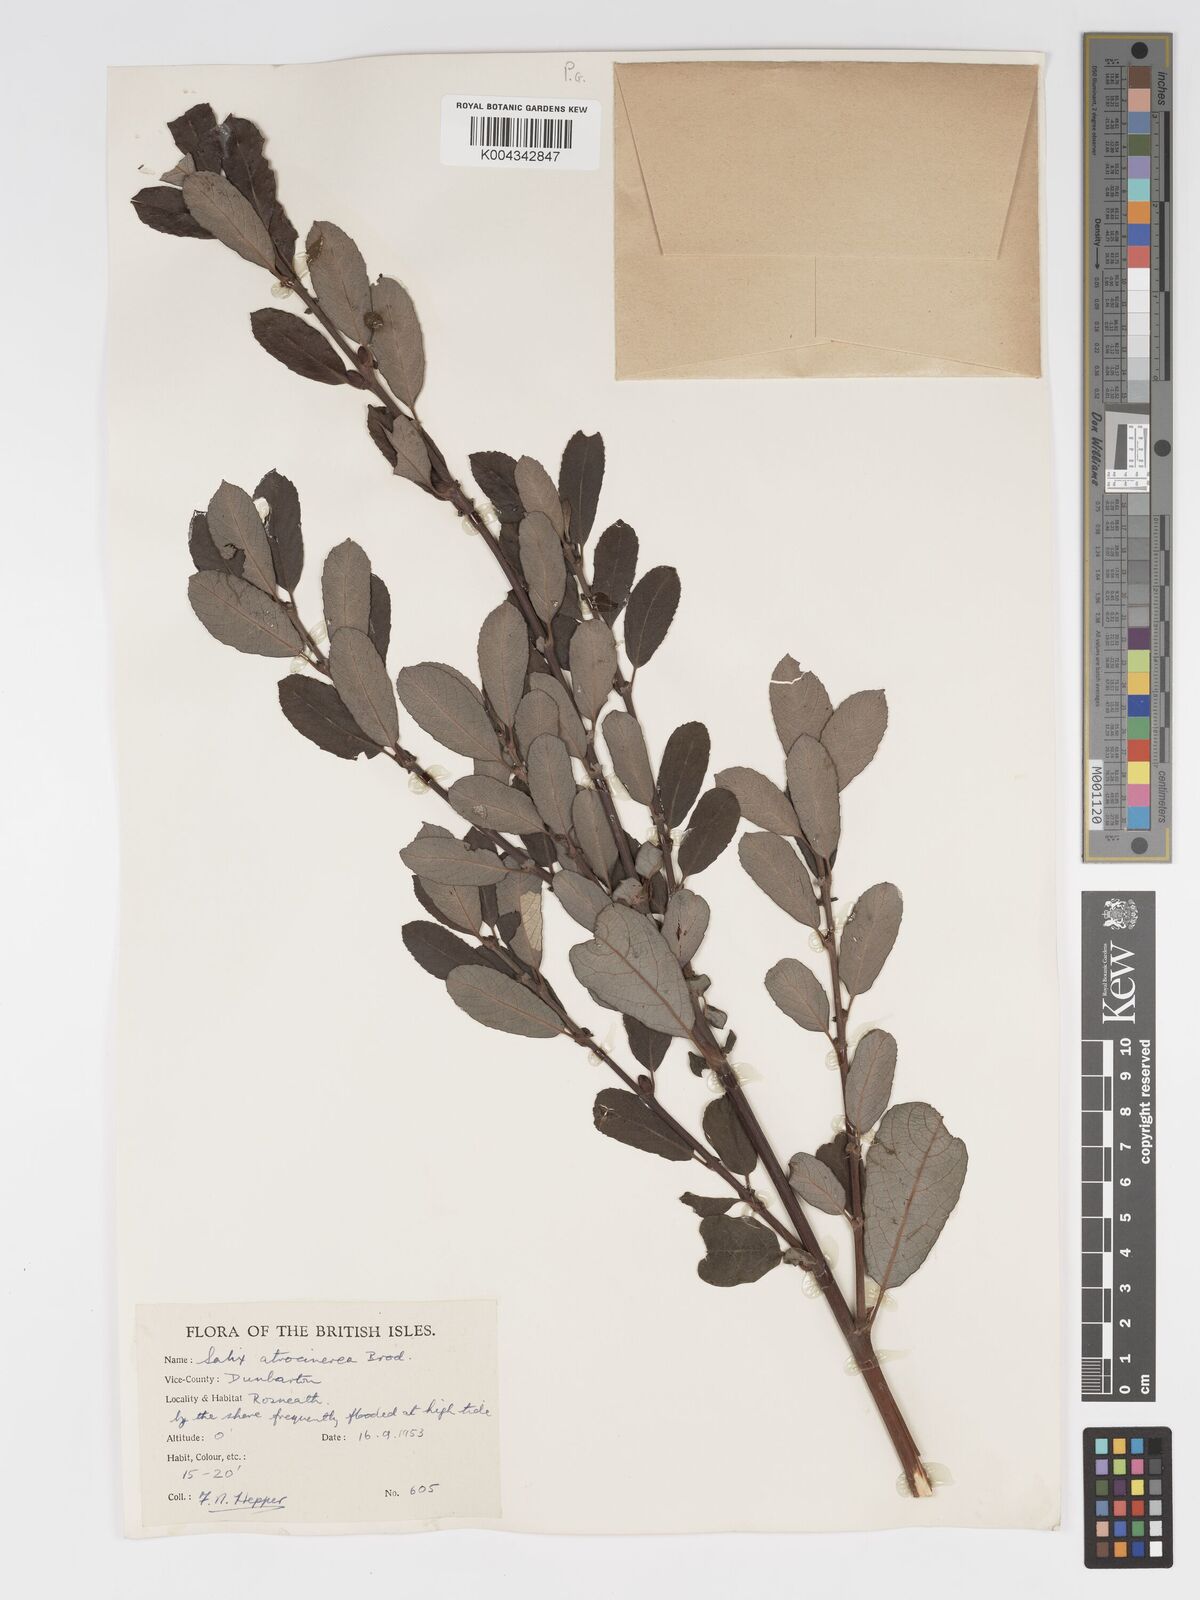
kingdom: Plantae
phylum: Tracheophyta
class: Magnoliopsida
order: Malpighiales
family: Salicaceae
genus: Salix
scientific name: Salix atrocinerea
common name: Rusty willow
